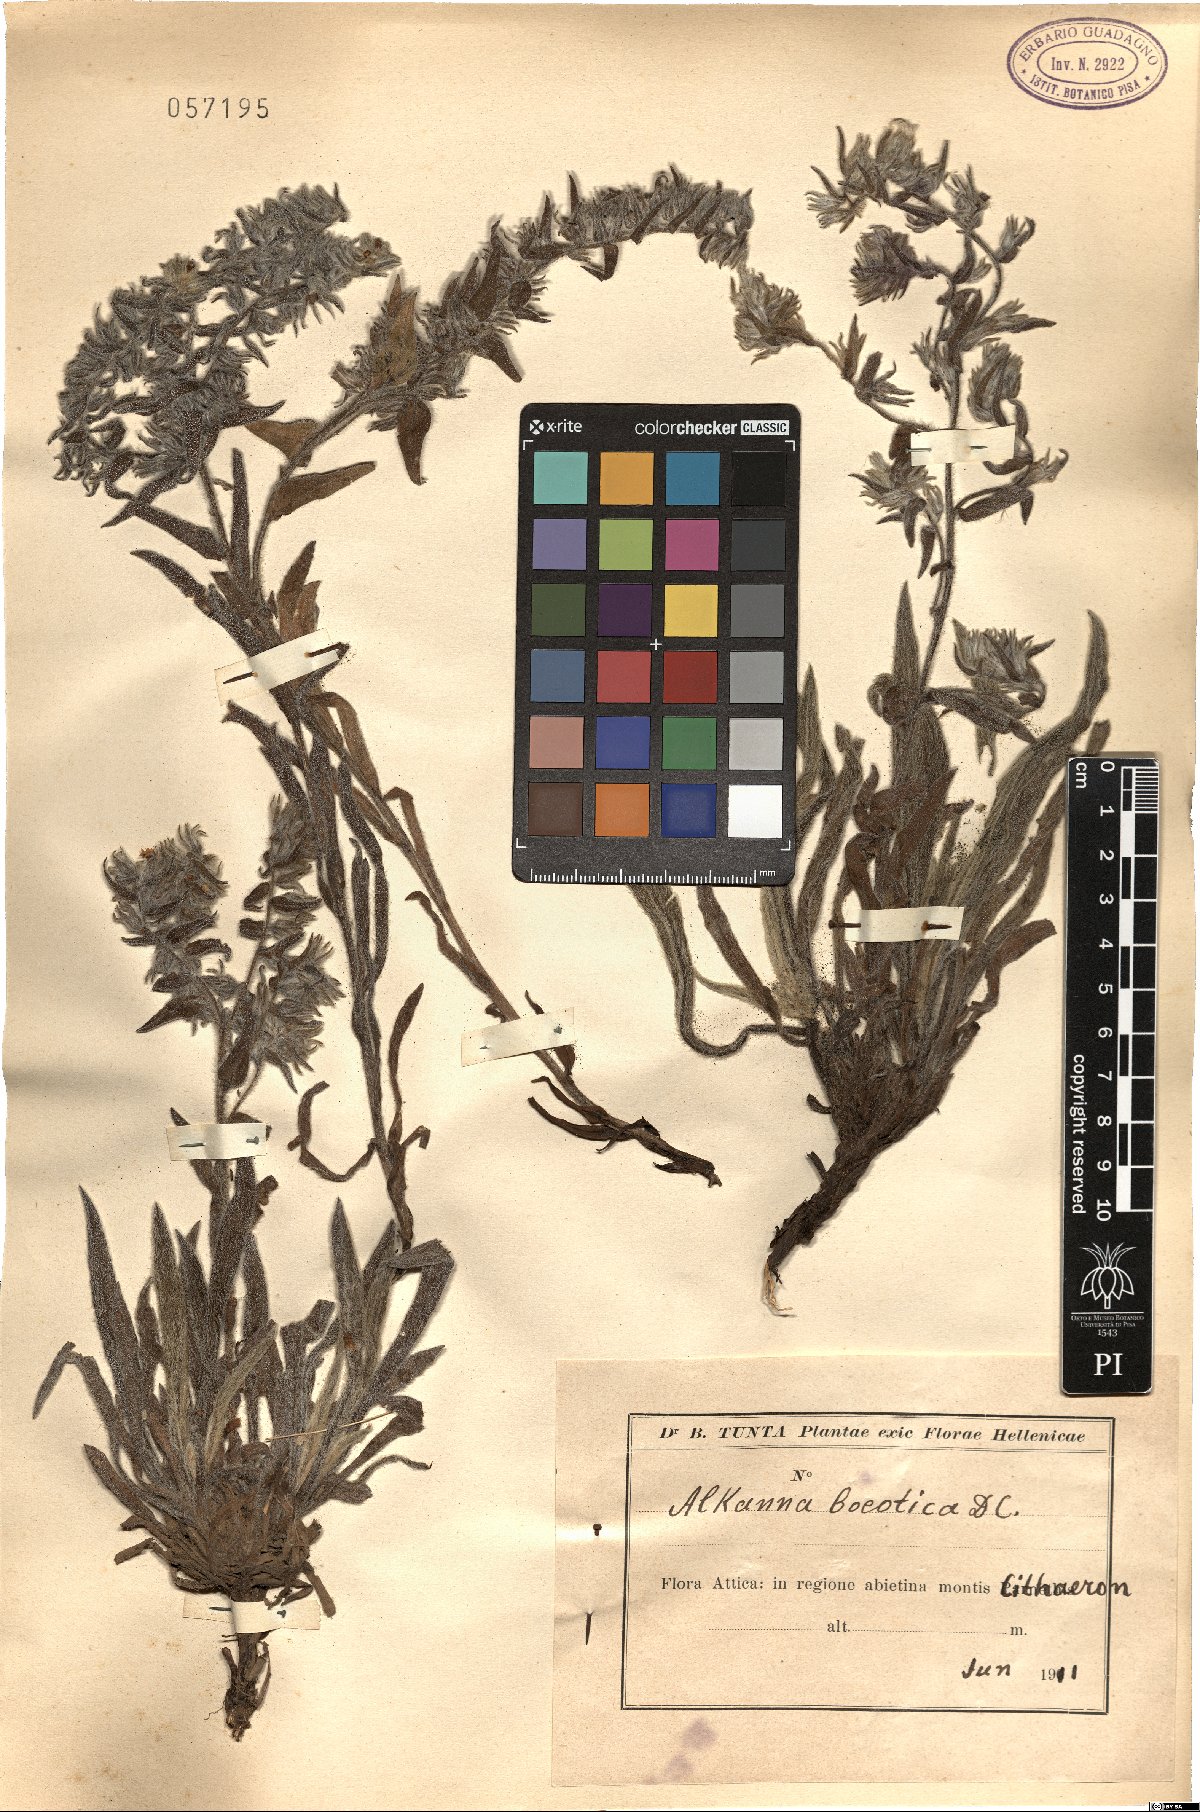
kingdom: Plantae
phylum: Tracheophyta
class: Magnoliopsida
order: Boraginales
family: Boraginaceae
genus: Alkanna
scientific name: Alkanna graeca
